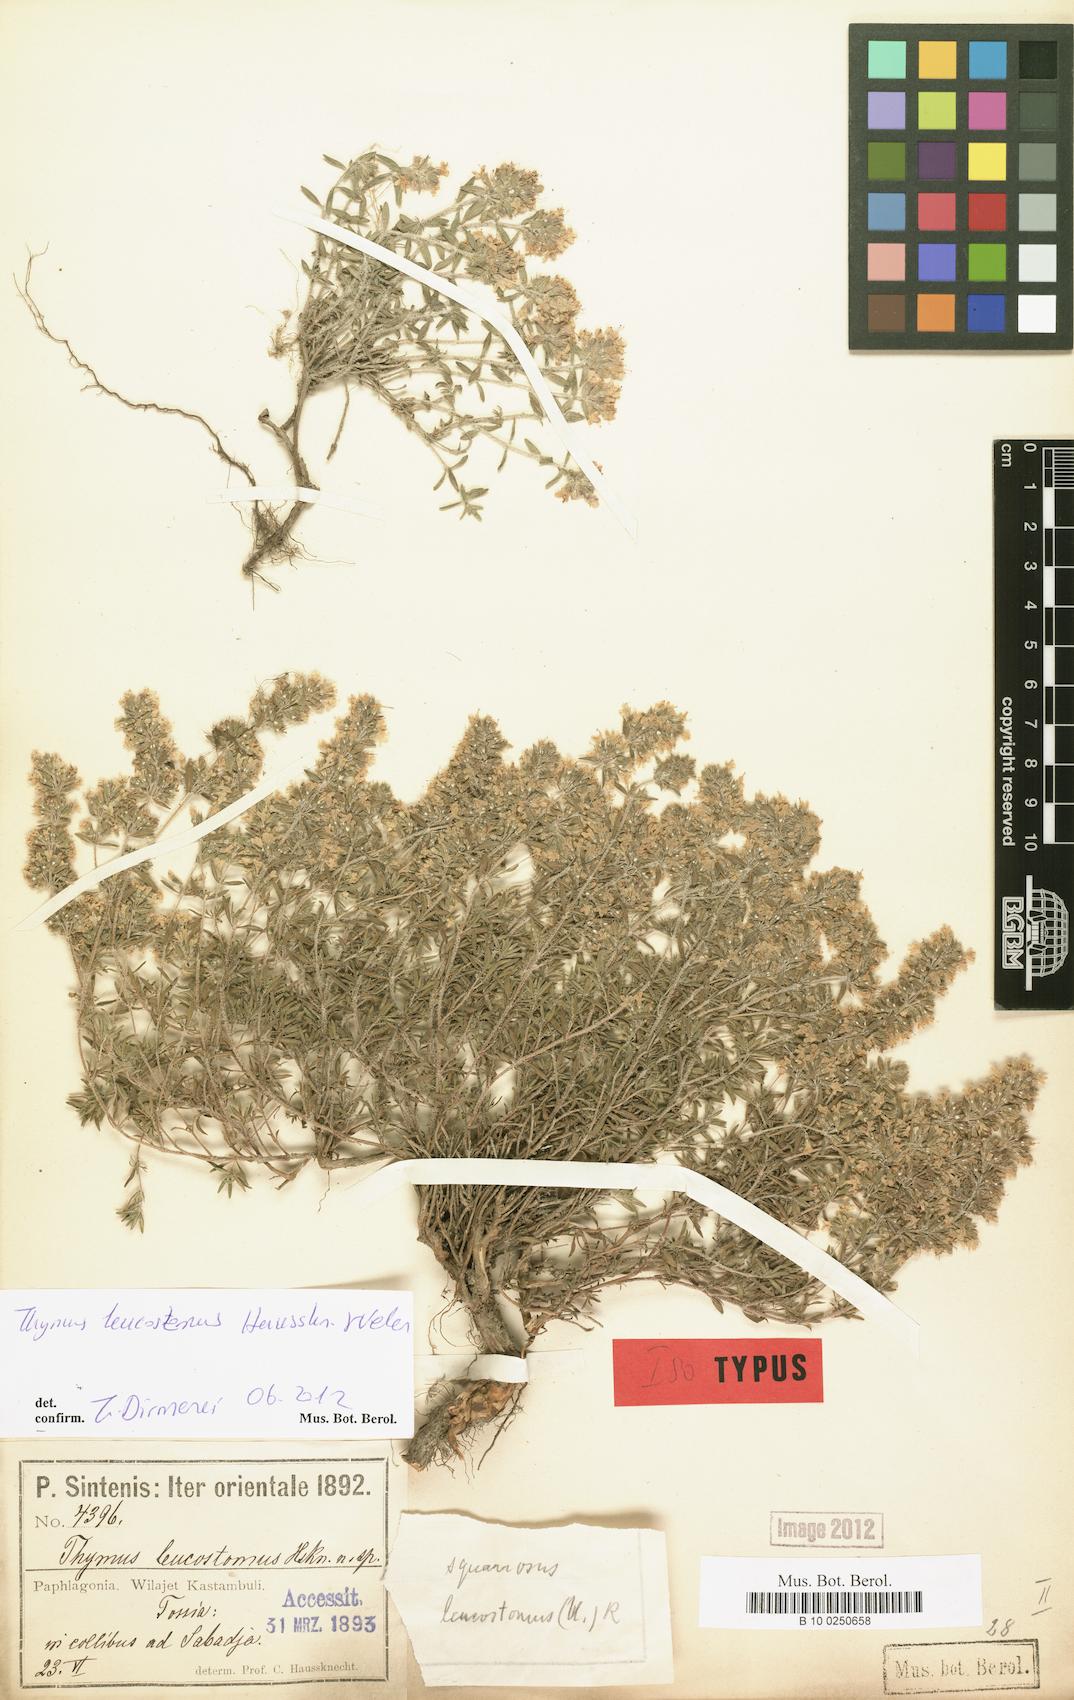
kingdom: Plantae
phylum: Tracheophyta
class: Magnoliopsida
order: Lamiales
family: Lamiaceae
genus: Thymus
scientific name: Thymus leucostomus
